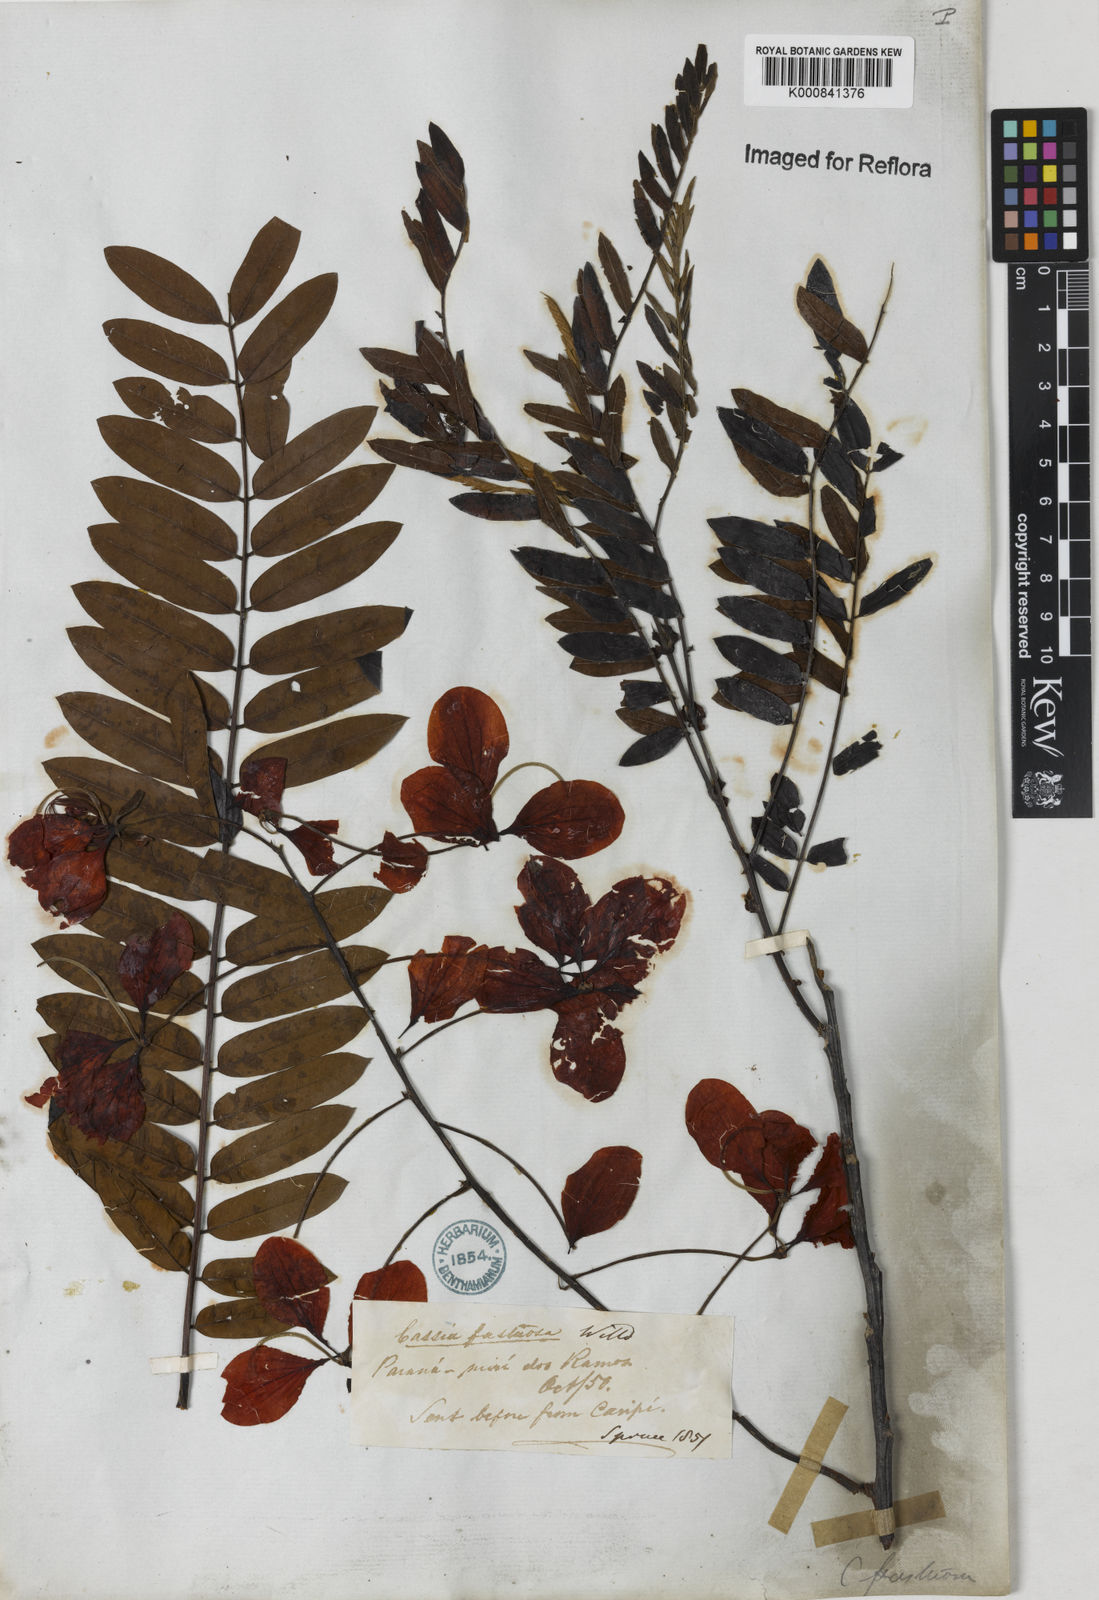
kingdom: Plantae
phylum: Tracheophyta
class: Magnoliopsida
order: Fabales
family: Fabaceae
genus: Cassia
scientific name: Cassia
